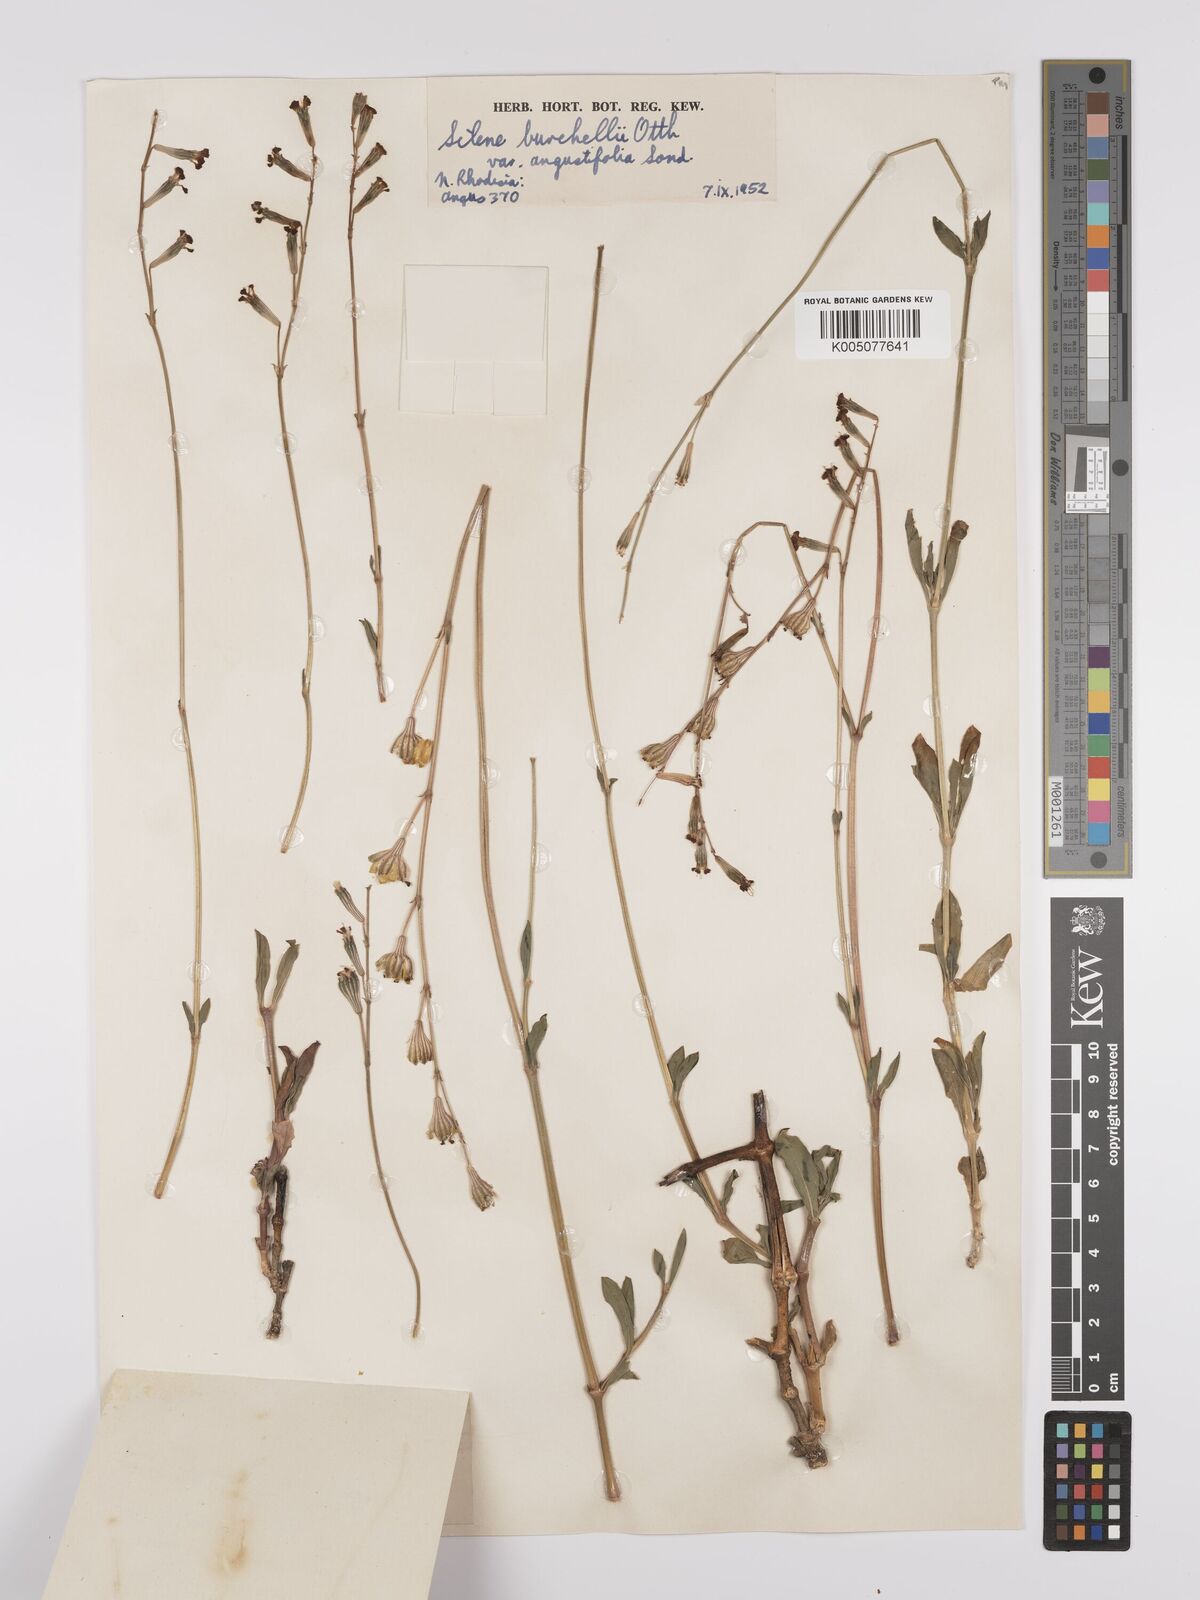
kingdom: Plantae
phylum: Tracheophyta
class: Magnoliopsida
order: Caryophyllales
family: Caryophyllaceae
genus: Silene
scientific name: Silene burchellii
